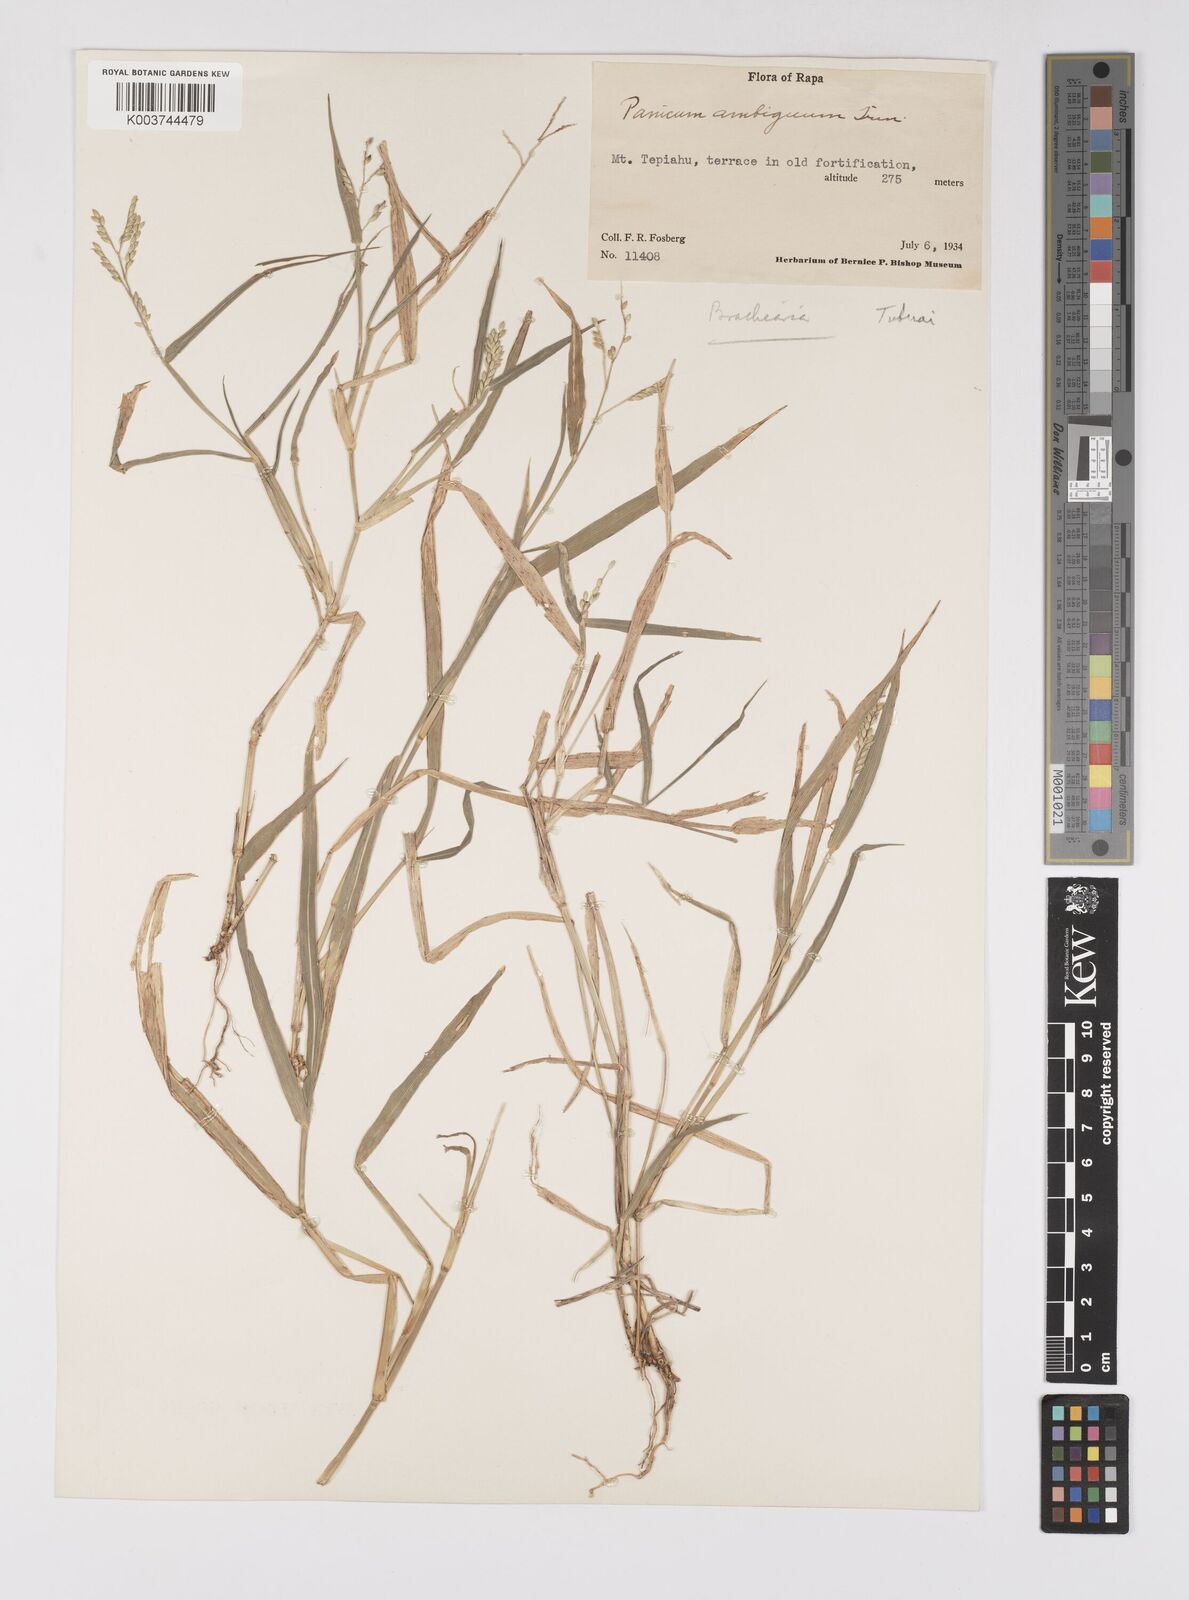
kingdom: Plantae
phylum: Tracheophyta
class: Liliopsida
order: Poales
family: Poaceae
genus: Urochloa
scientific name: Urochloa glumaris
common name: Thurston grass
